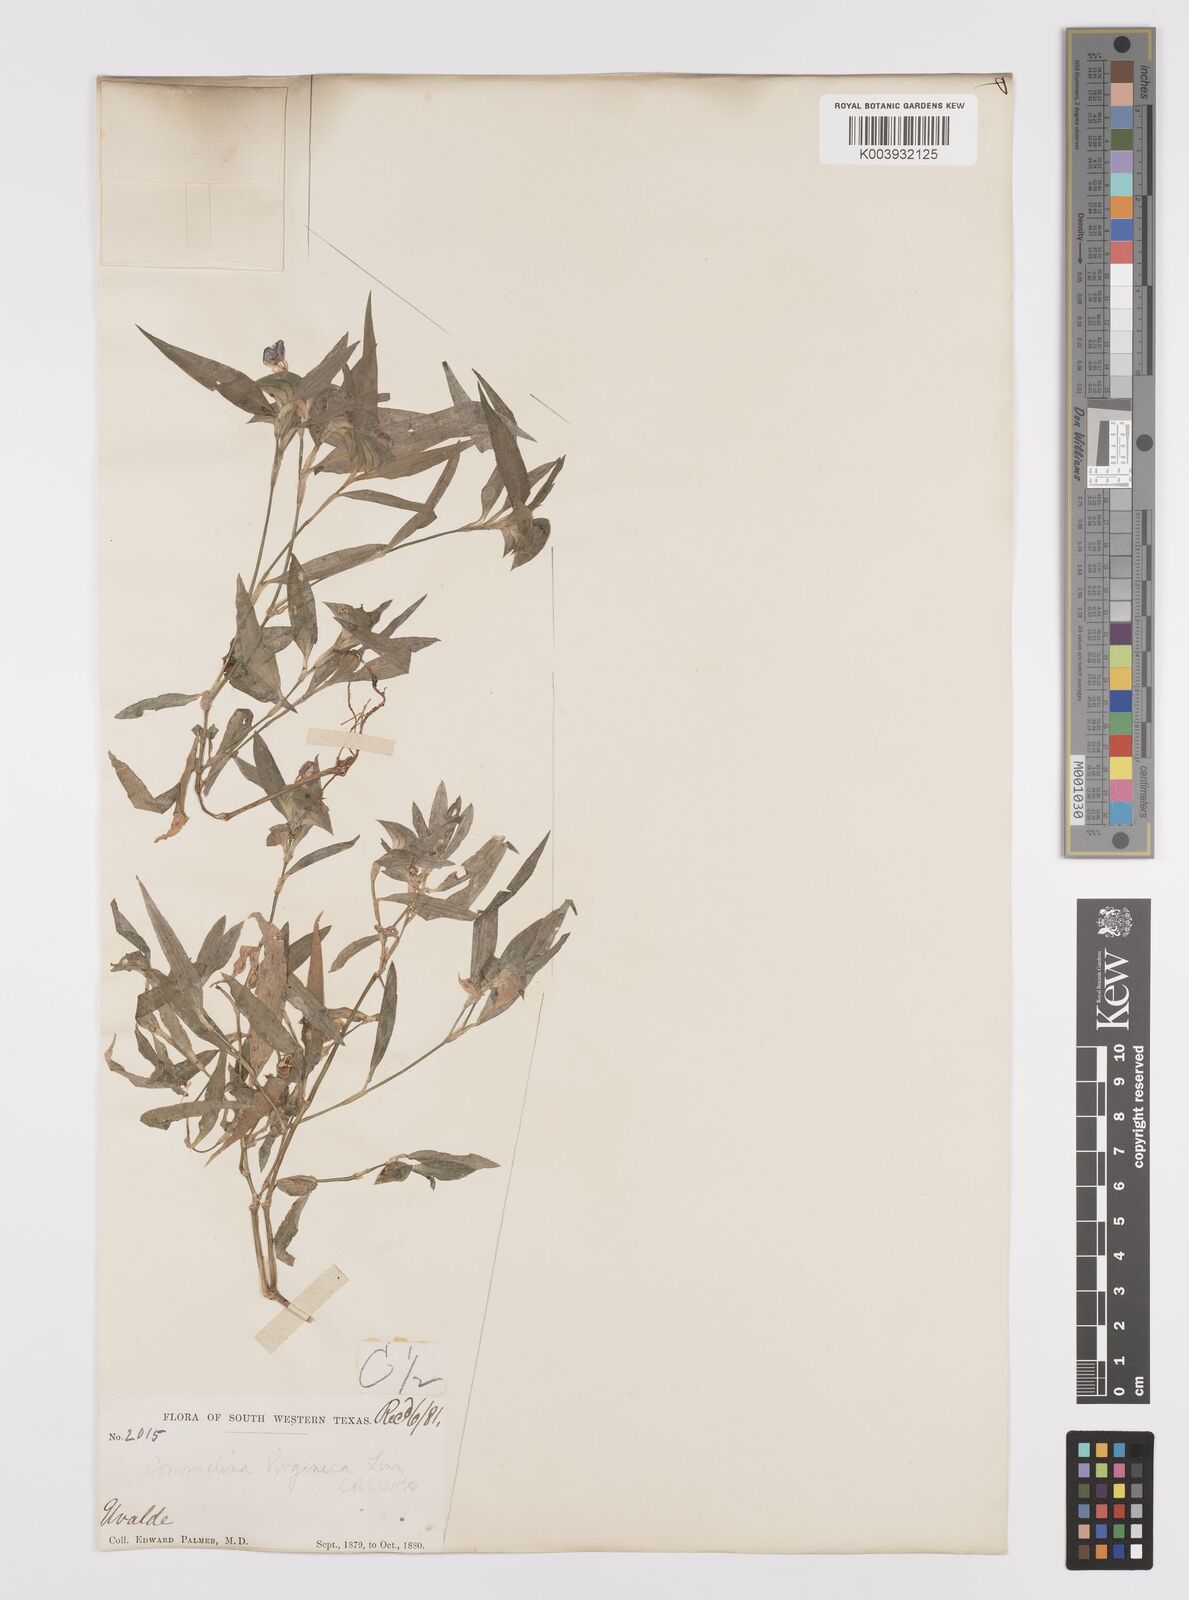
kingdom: Plantae
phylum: Tracheophyta
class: Liliopsida
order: Commelinales
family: Commelinaceae
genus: Commelina
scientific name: Commelina erecta
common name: Blousel blommetjie
